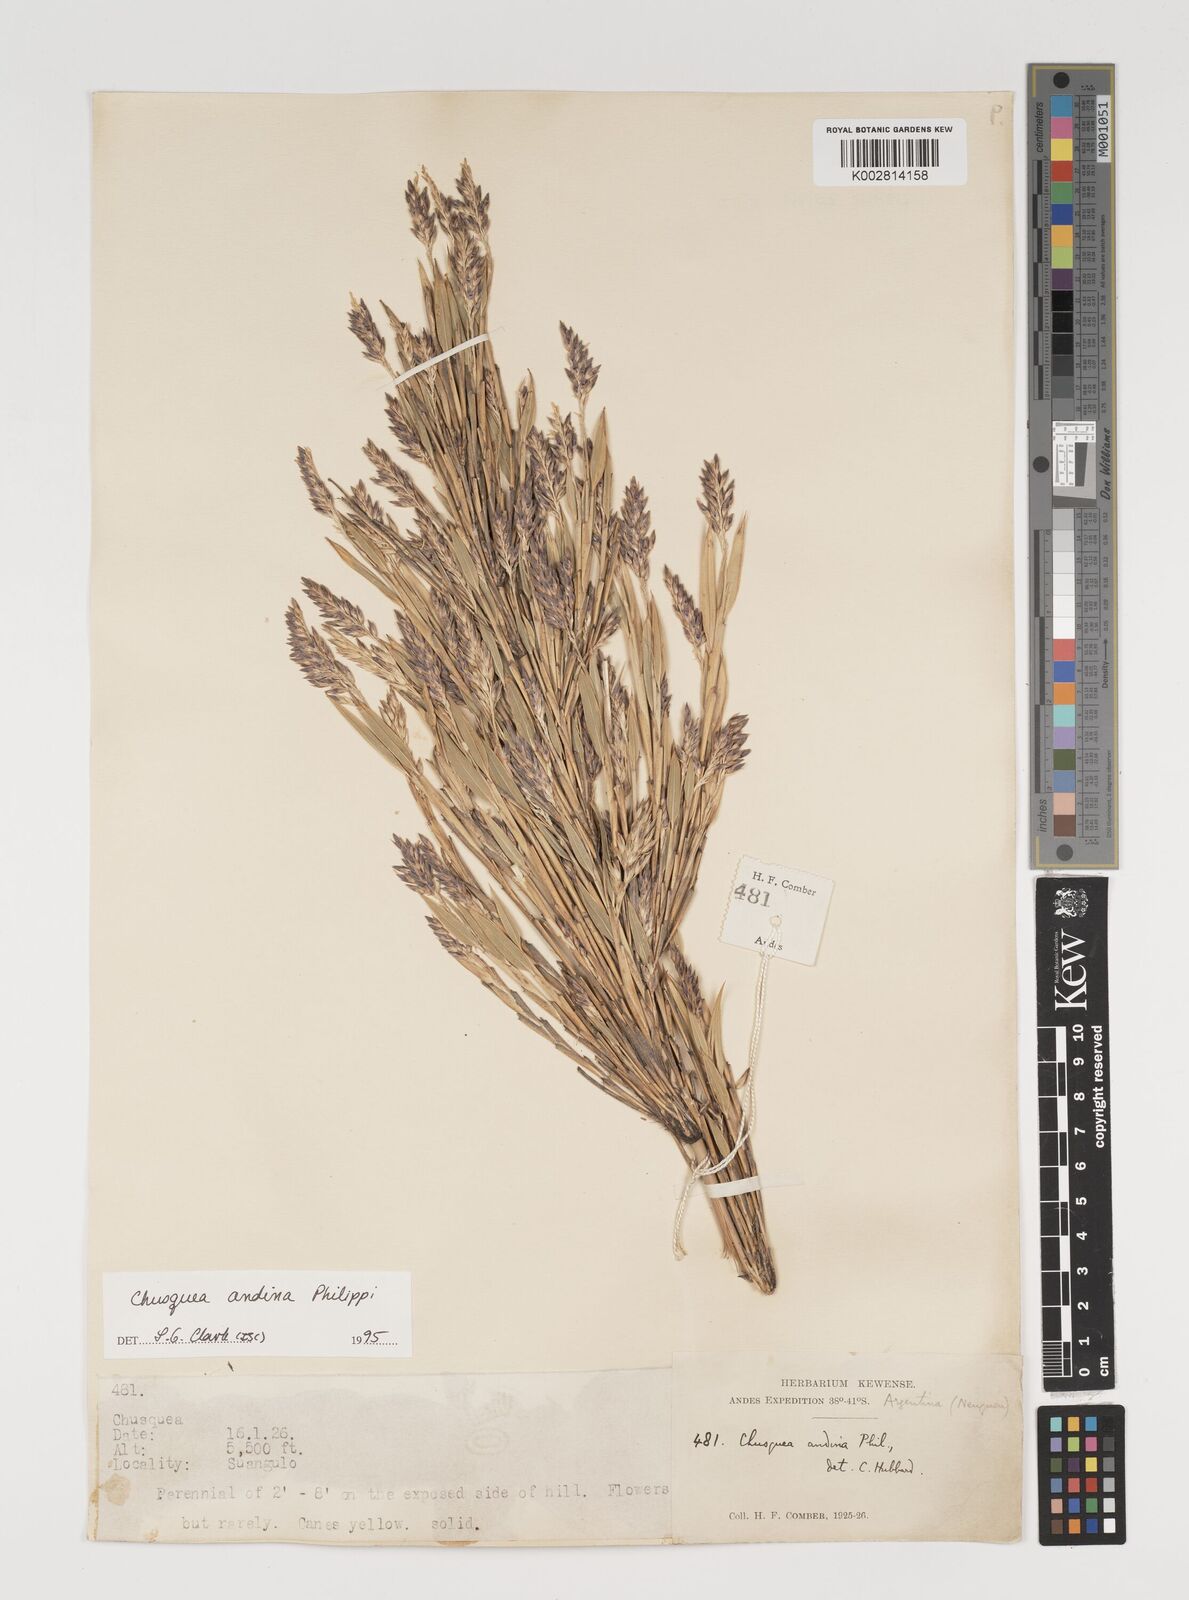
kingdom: Plantae
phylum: Tracheophyta
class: Liliopsida
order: Poales
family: Poaceae
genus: Chusquea
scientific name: Chusquea andina
